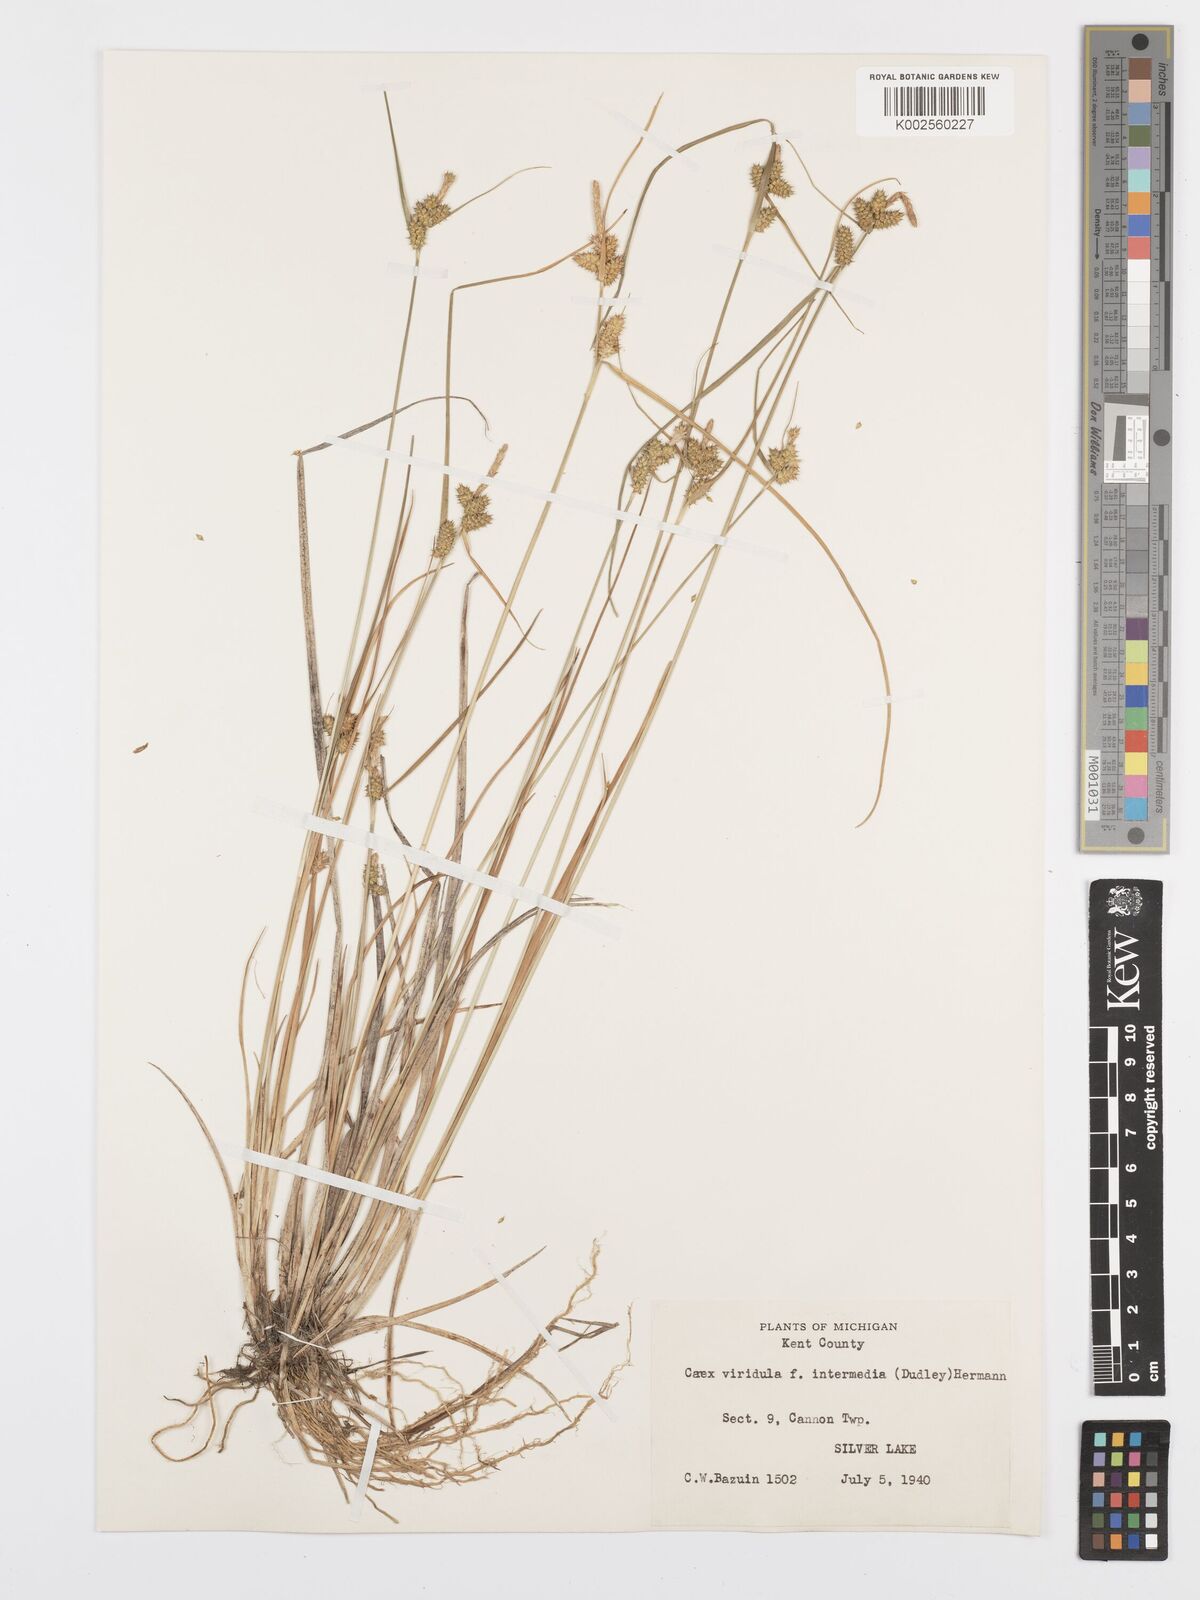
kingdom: Plantae
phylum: Tracheophyta
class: Liliopsida
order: Poales
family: Cyperaceae
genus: Carex
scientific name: Carex oederi
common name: Common & small-fruited yellow-sedge
